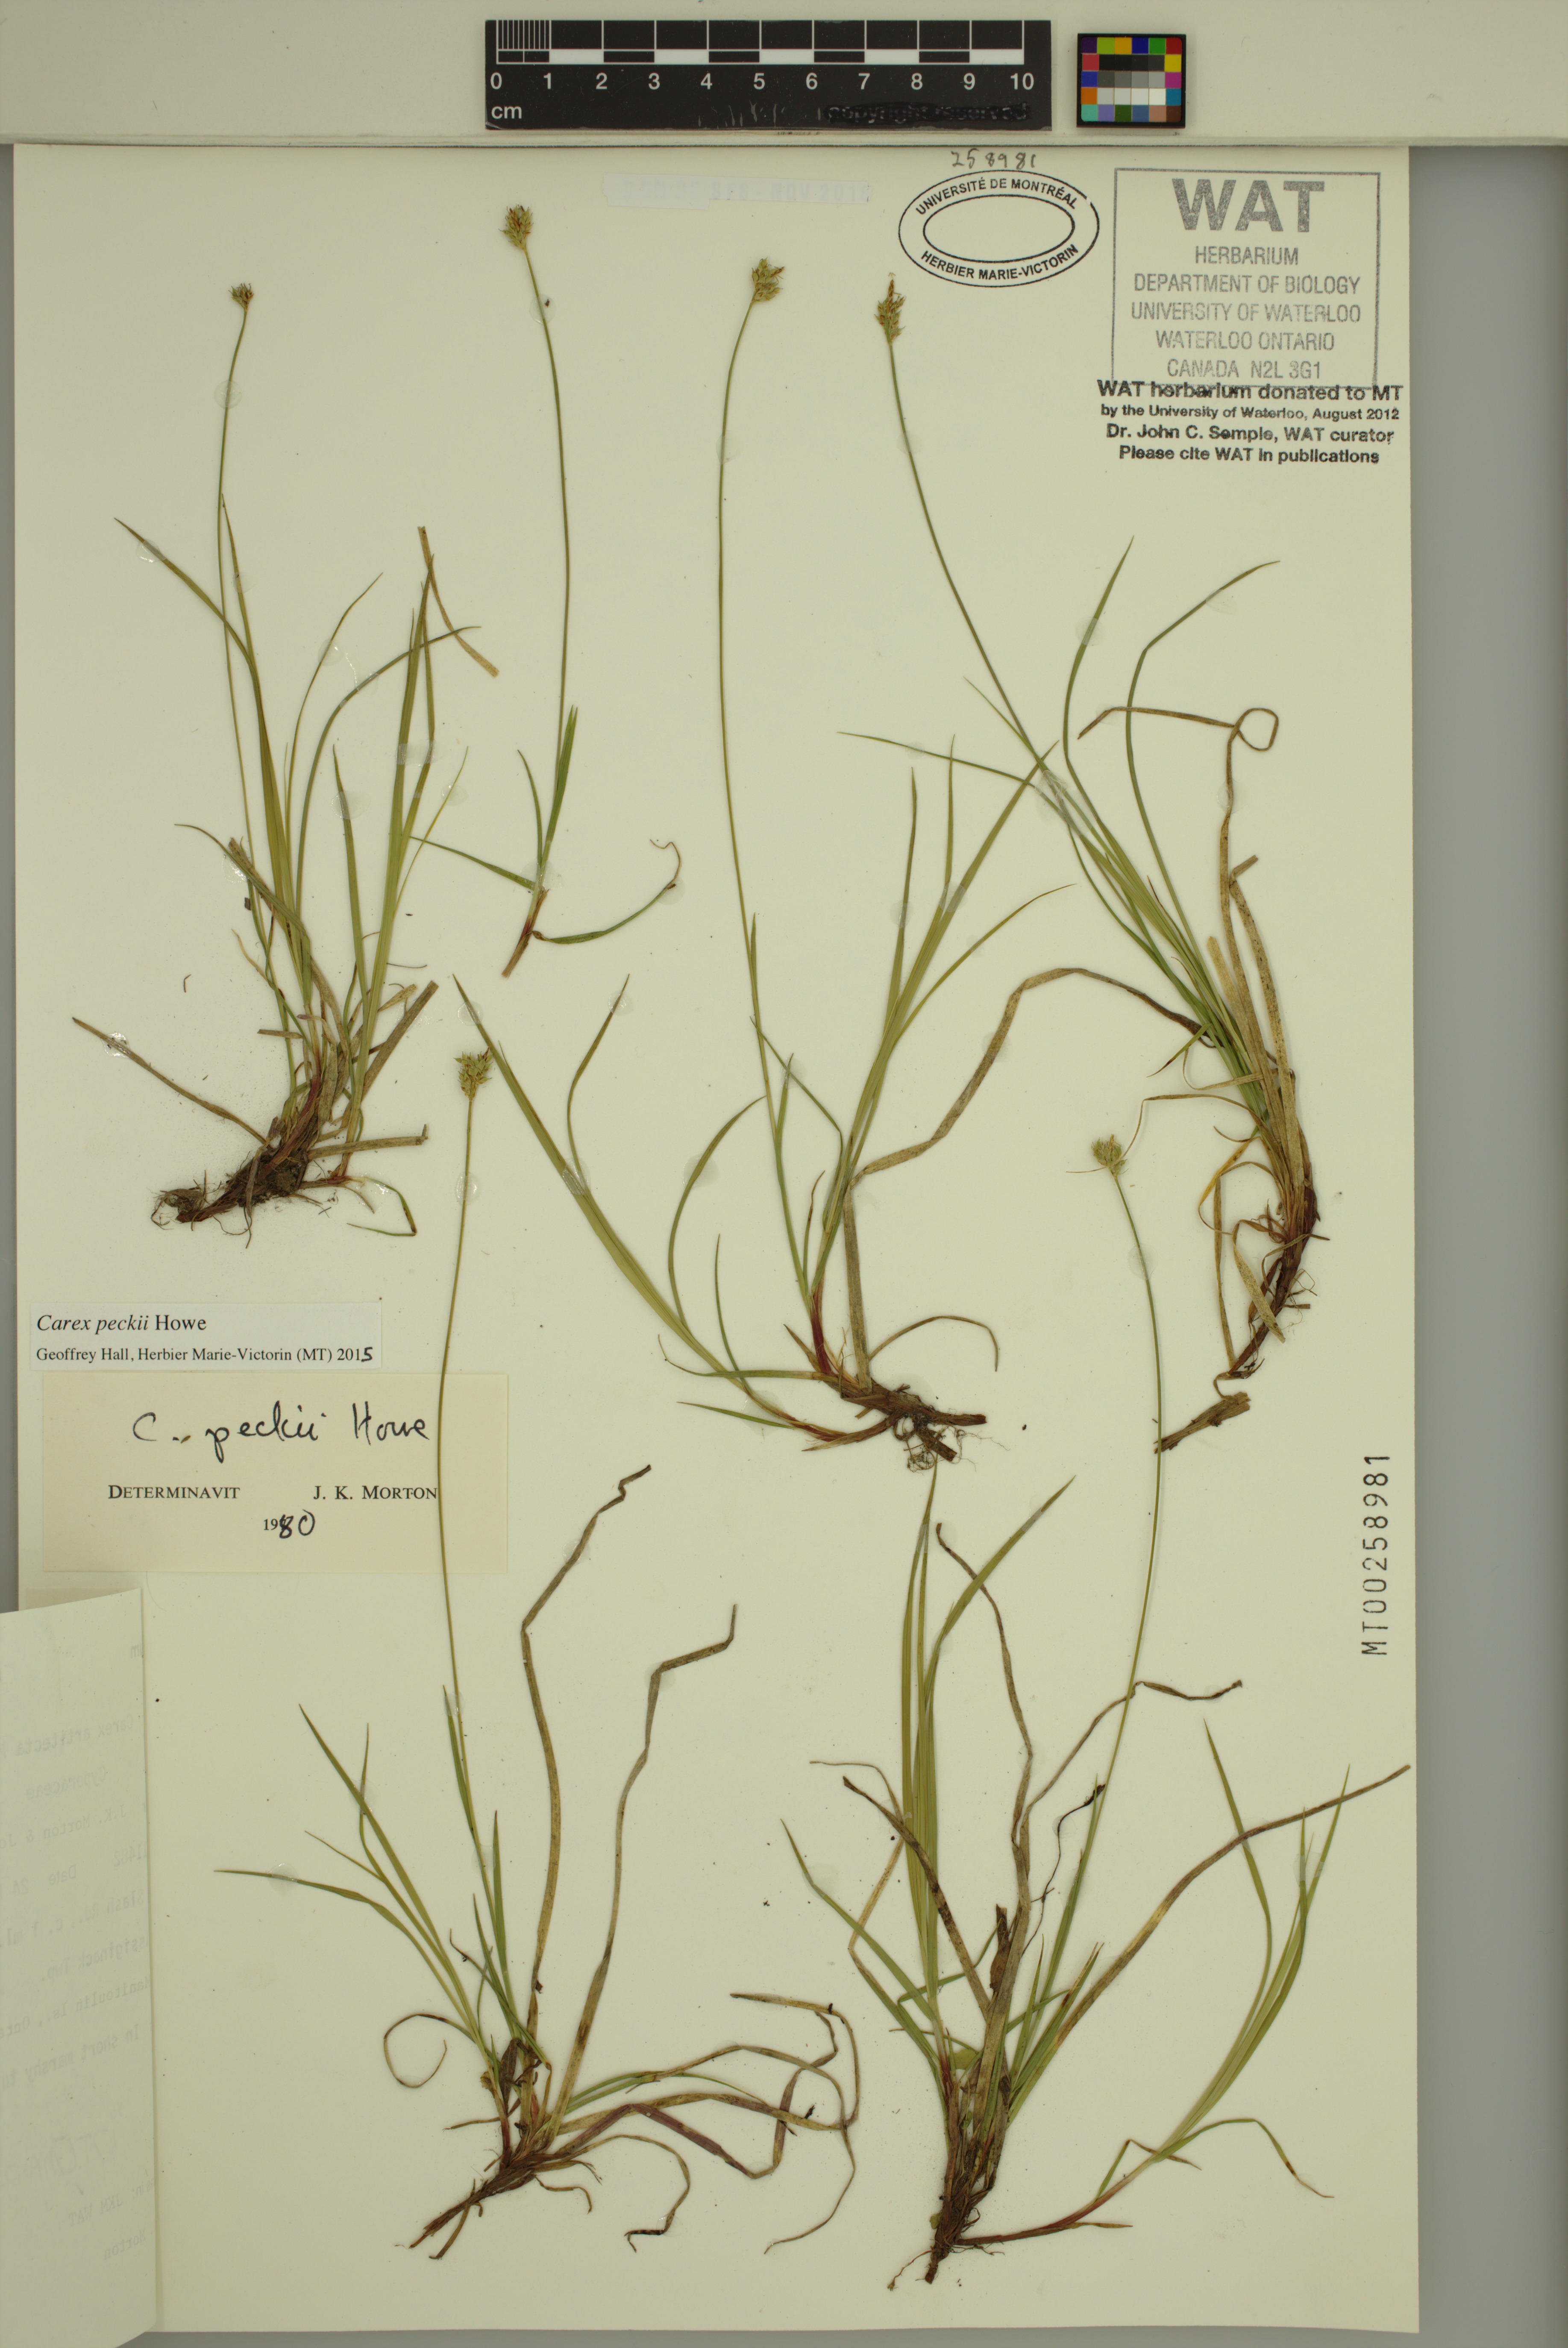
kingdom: Plantae
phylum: Tracheophyta
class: Liliopsida
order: Poales
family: Cyperaceae
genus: Carex
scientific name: Carex peckii
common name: Peck's oak sedge
